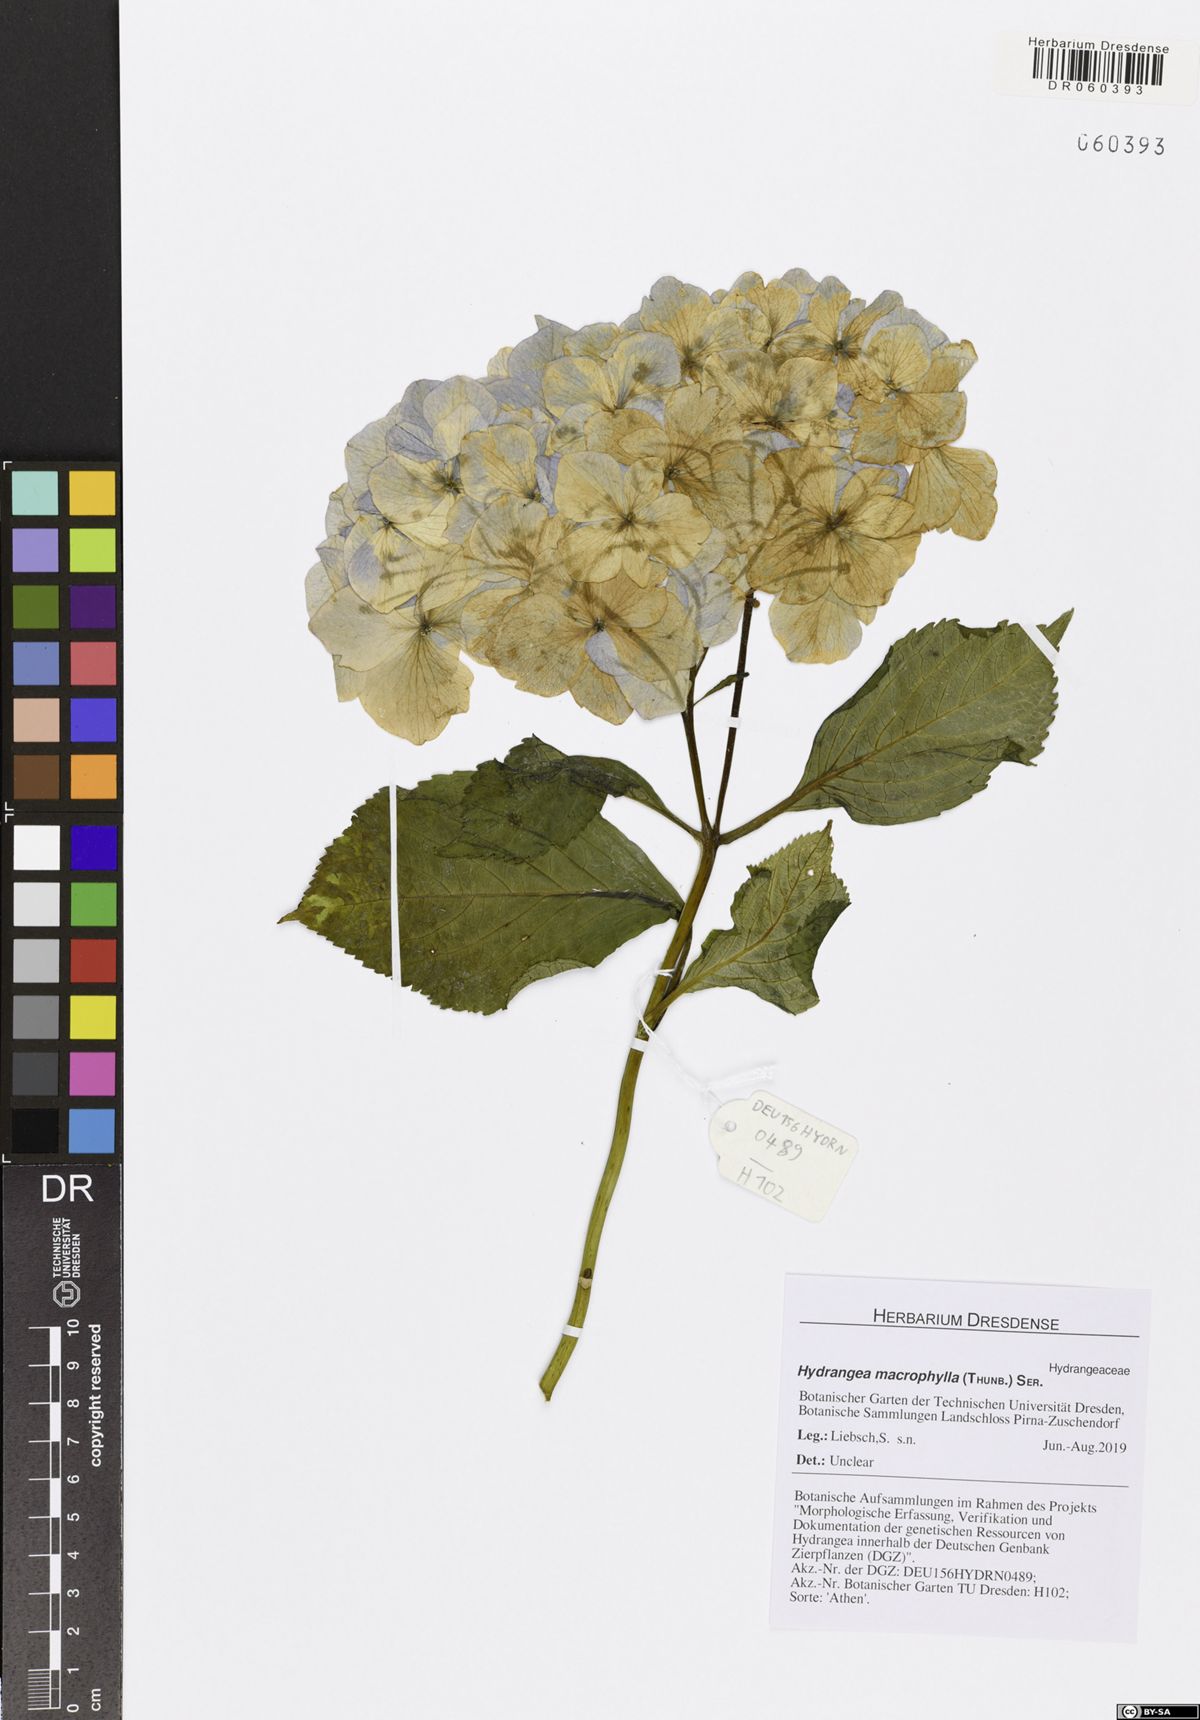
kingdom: Plantae
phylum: Tracheophyta
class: Magnoliopsida
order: Cornales
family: Hydrangeaceae
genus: Hydrangea
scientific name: Hydrangea macrophylla
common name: Hydrangea
